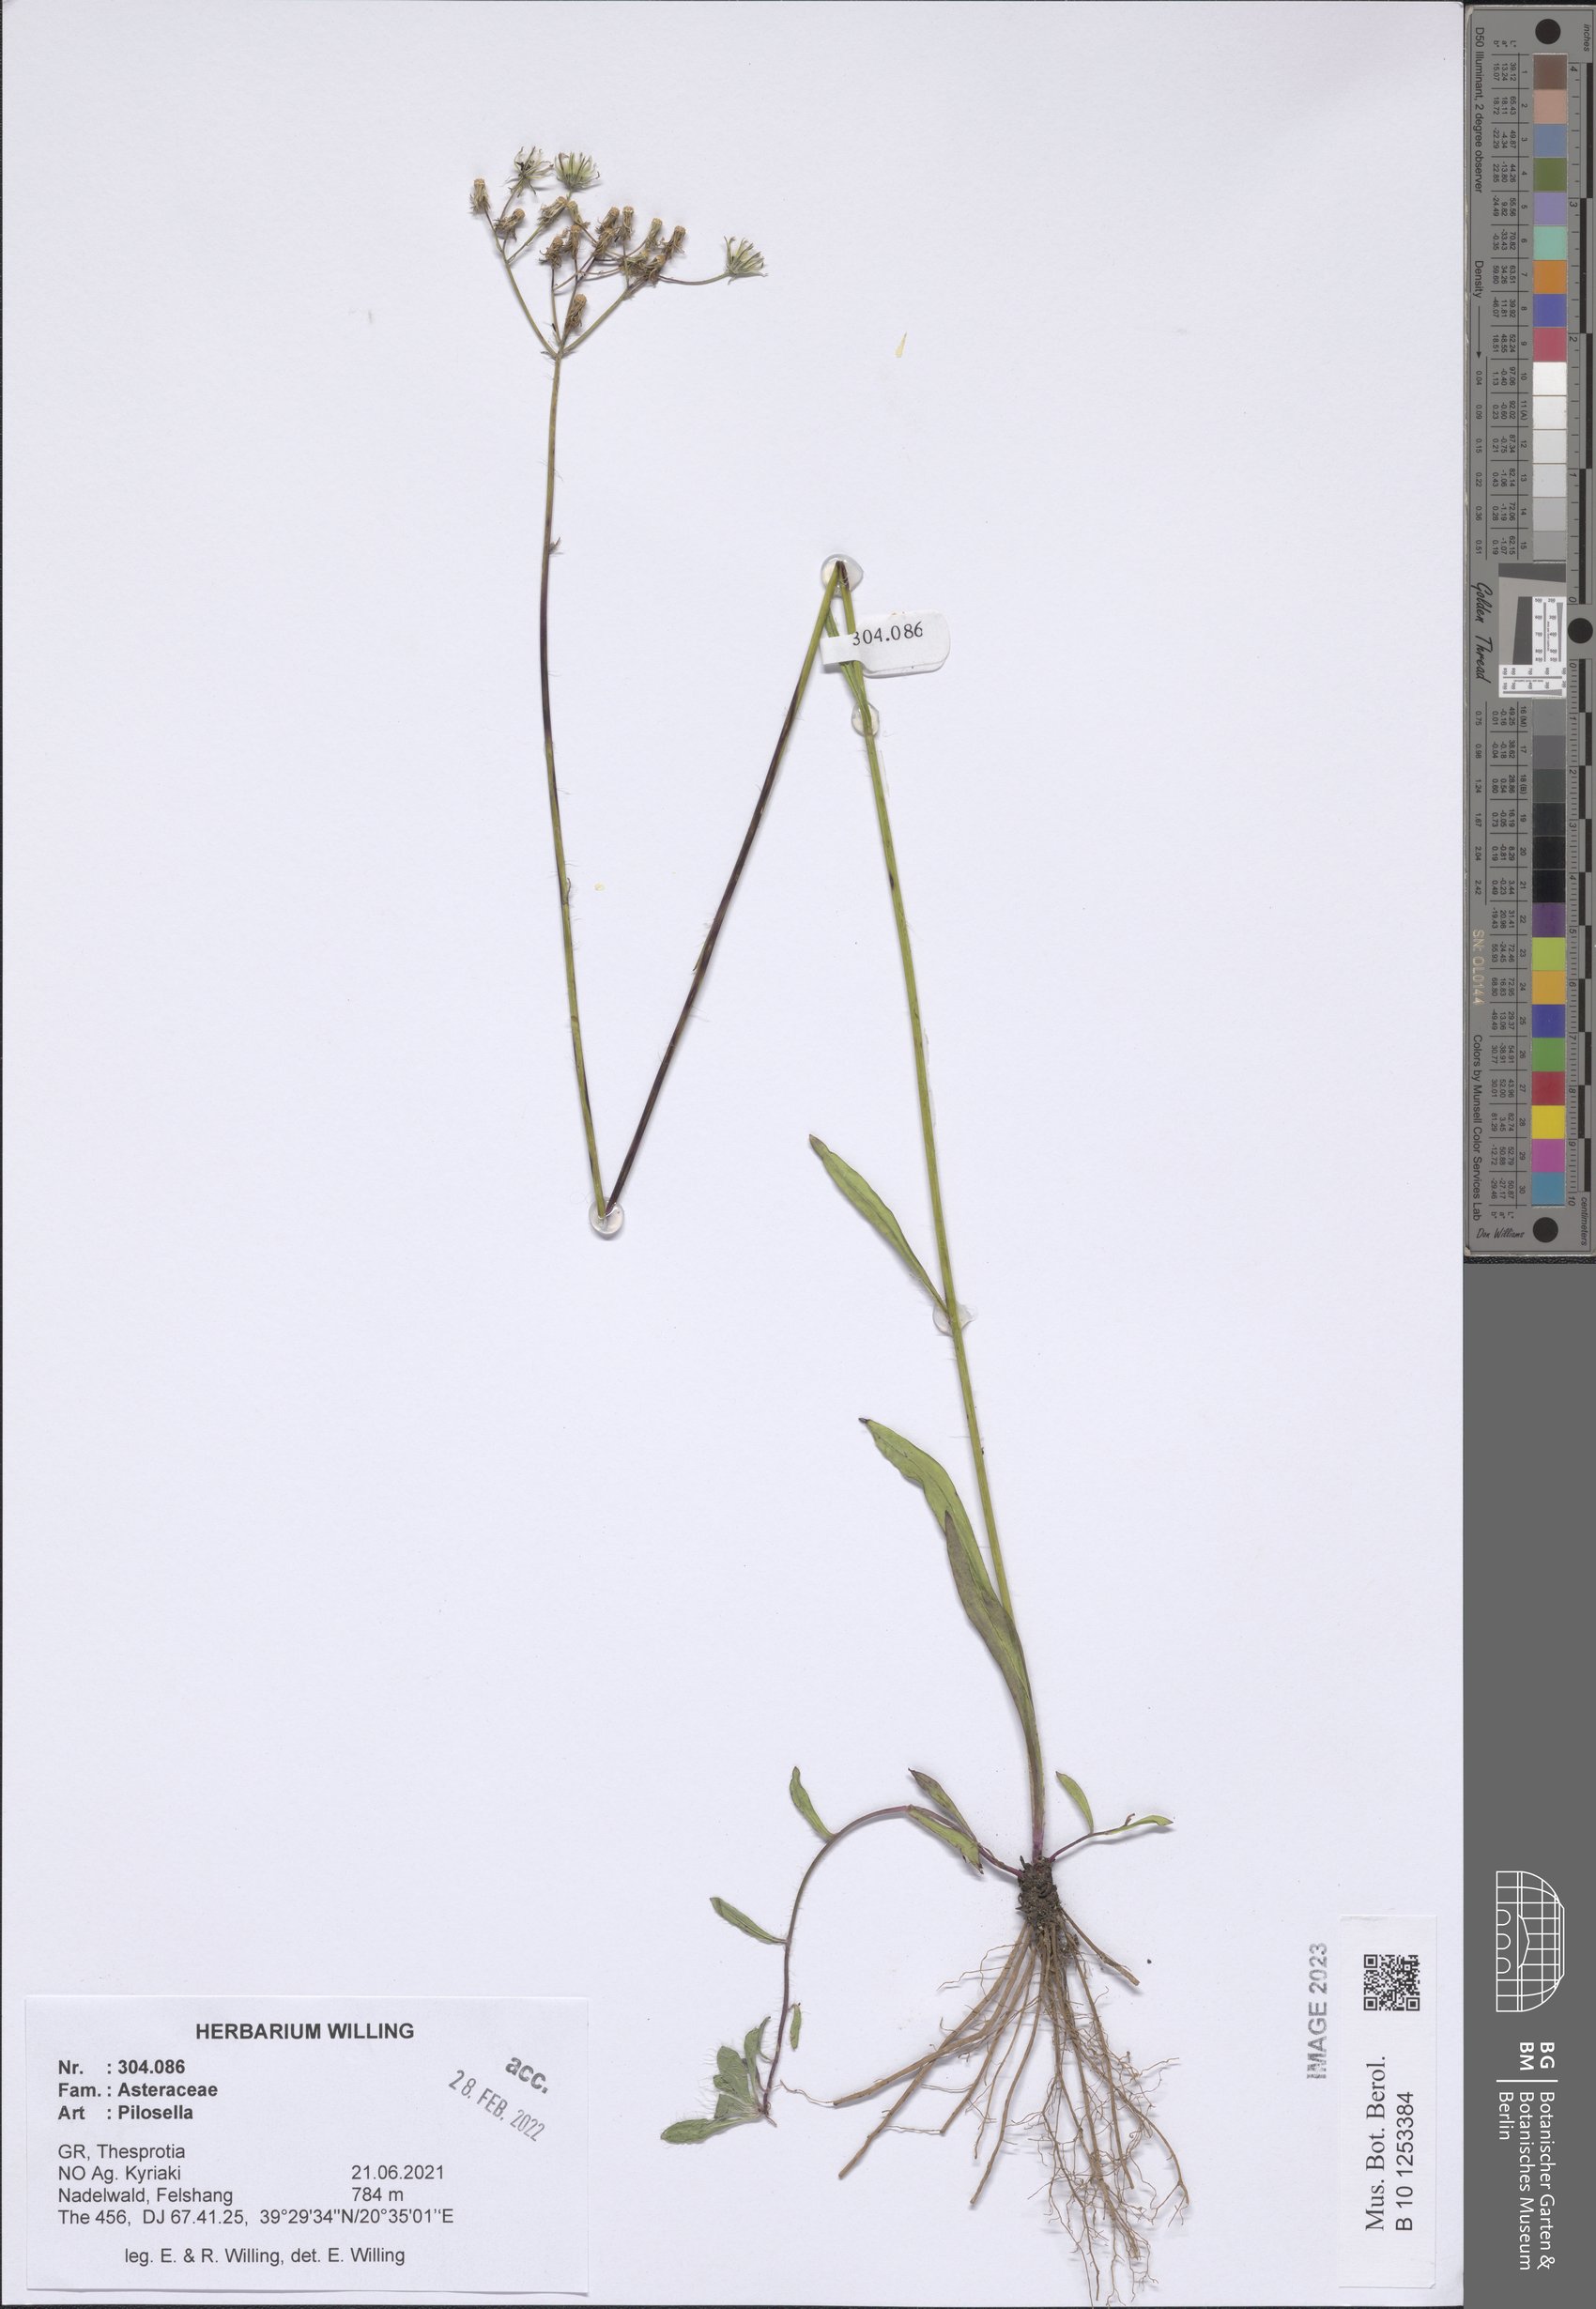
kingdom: Plantae
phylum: Tracheophyta
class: Magnoliopsida
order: Asterales
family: Asteraceae
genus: Pilosella
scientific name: Pilosella
